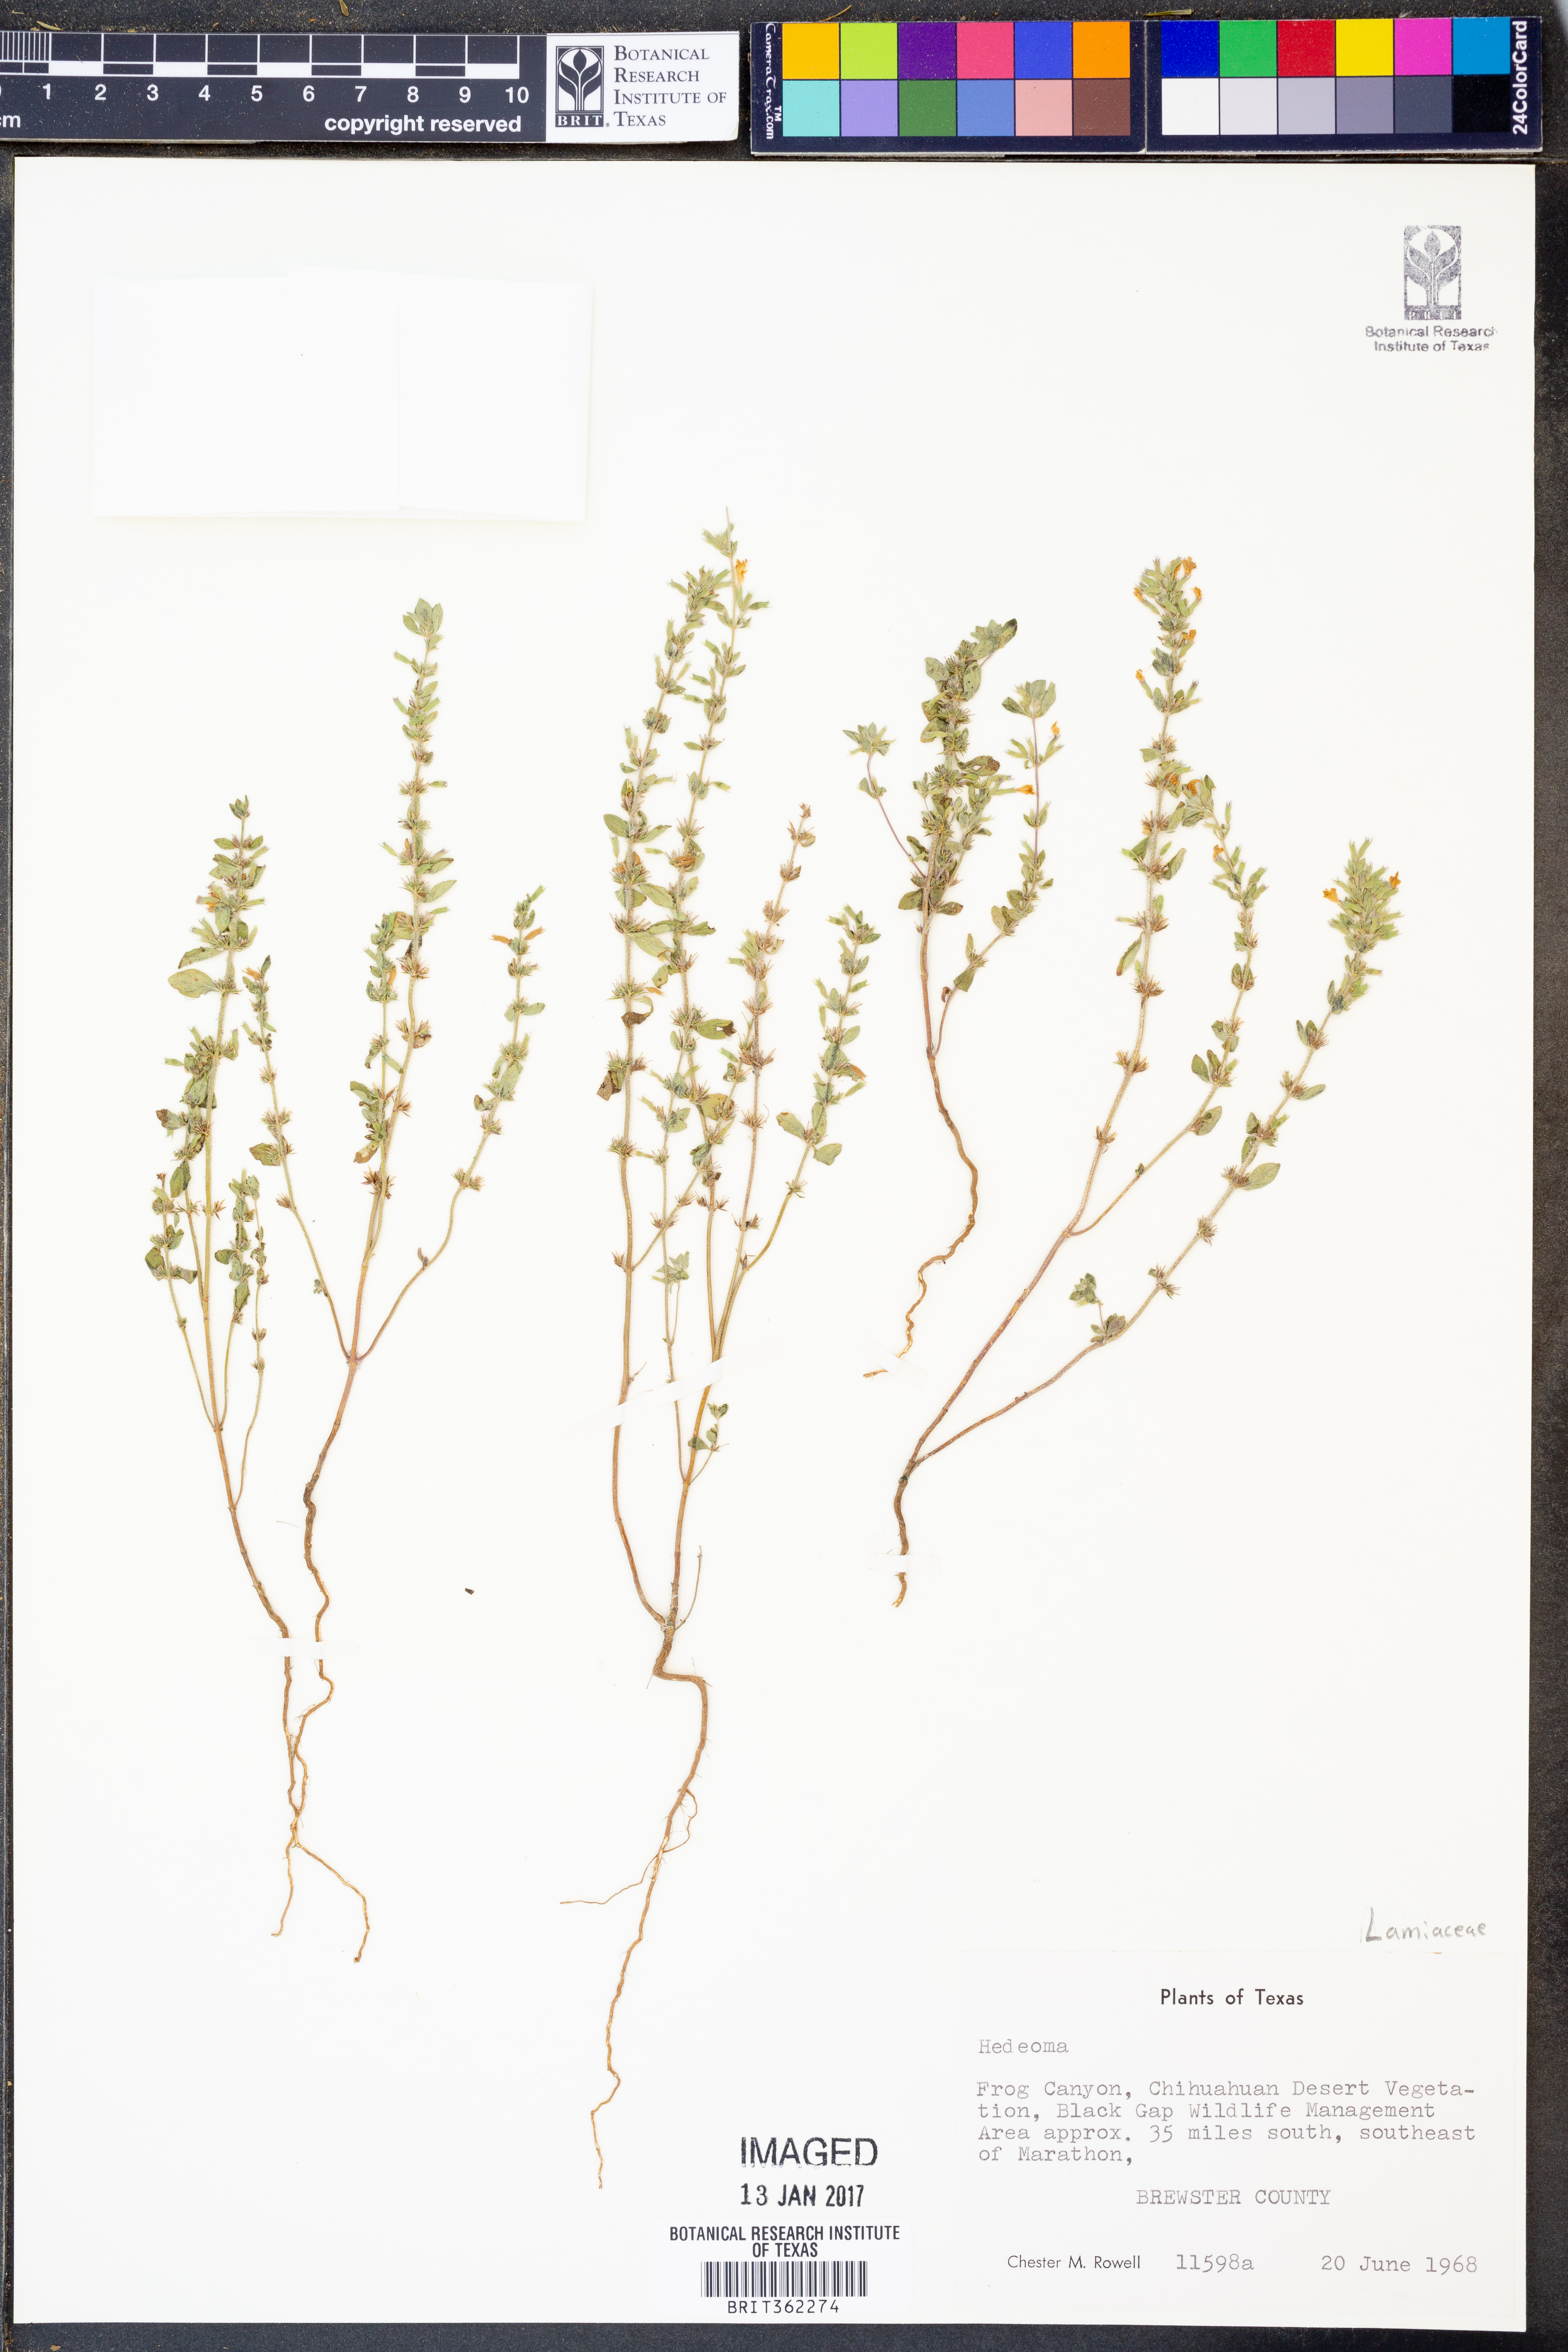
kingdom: Plantae
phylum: Tracheophyta
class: Magnoliopsida
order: Lamiales
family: Lamiaceae
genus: Hedeoma
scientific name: Hedeoma
